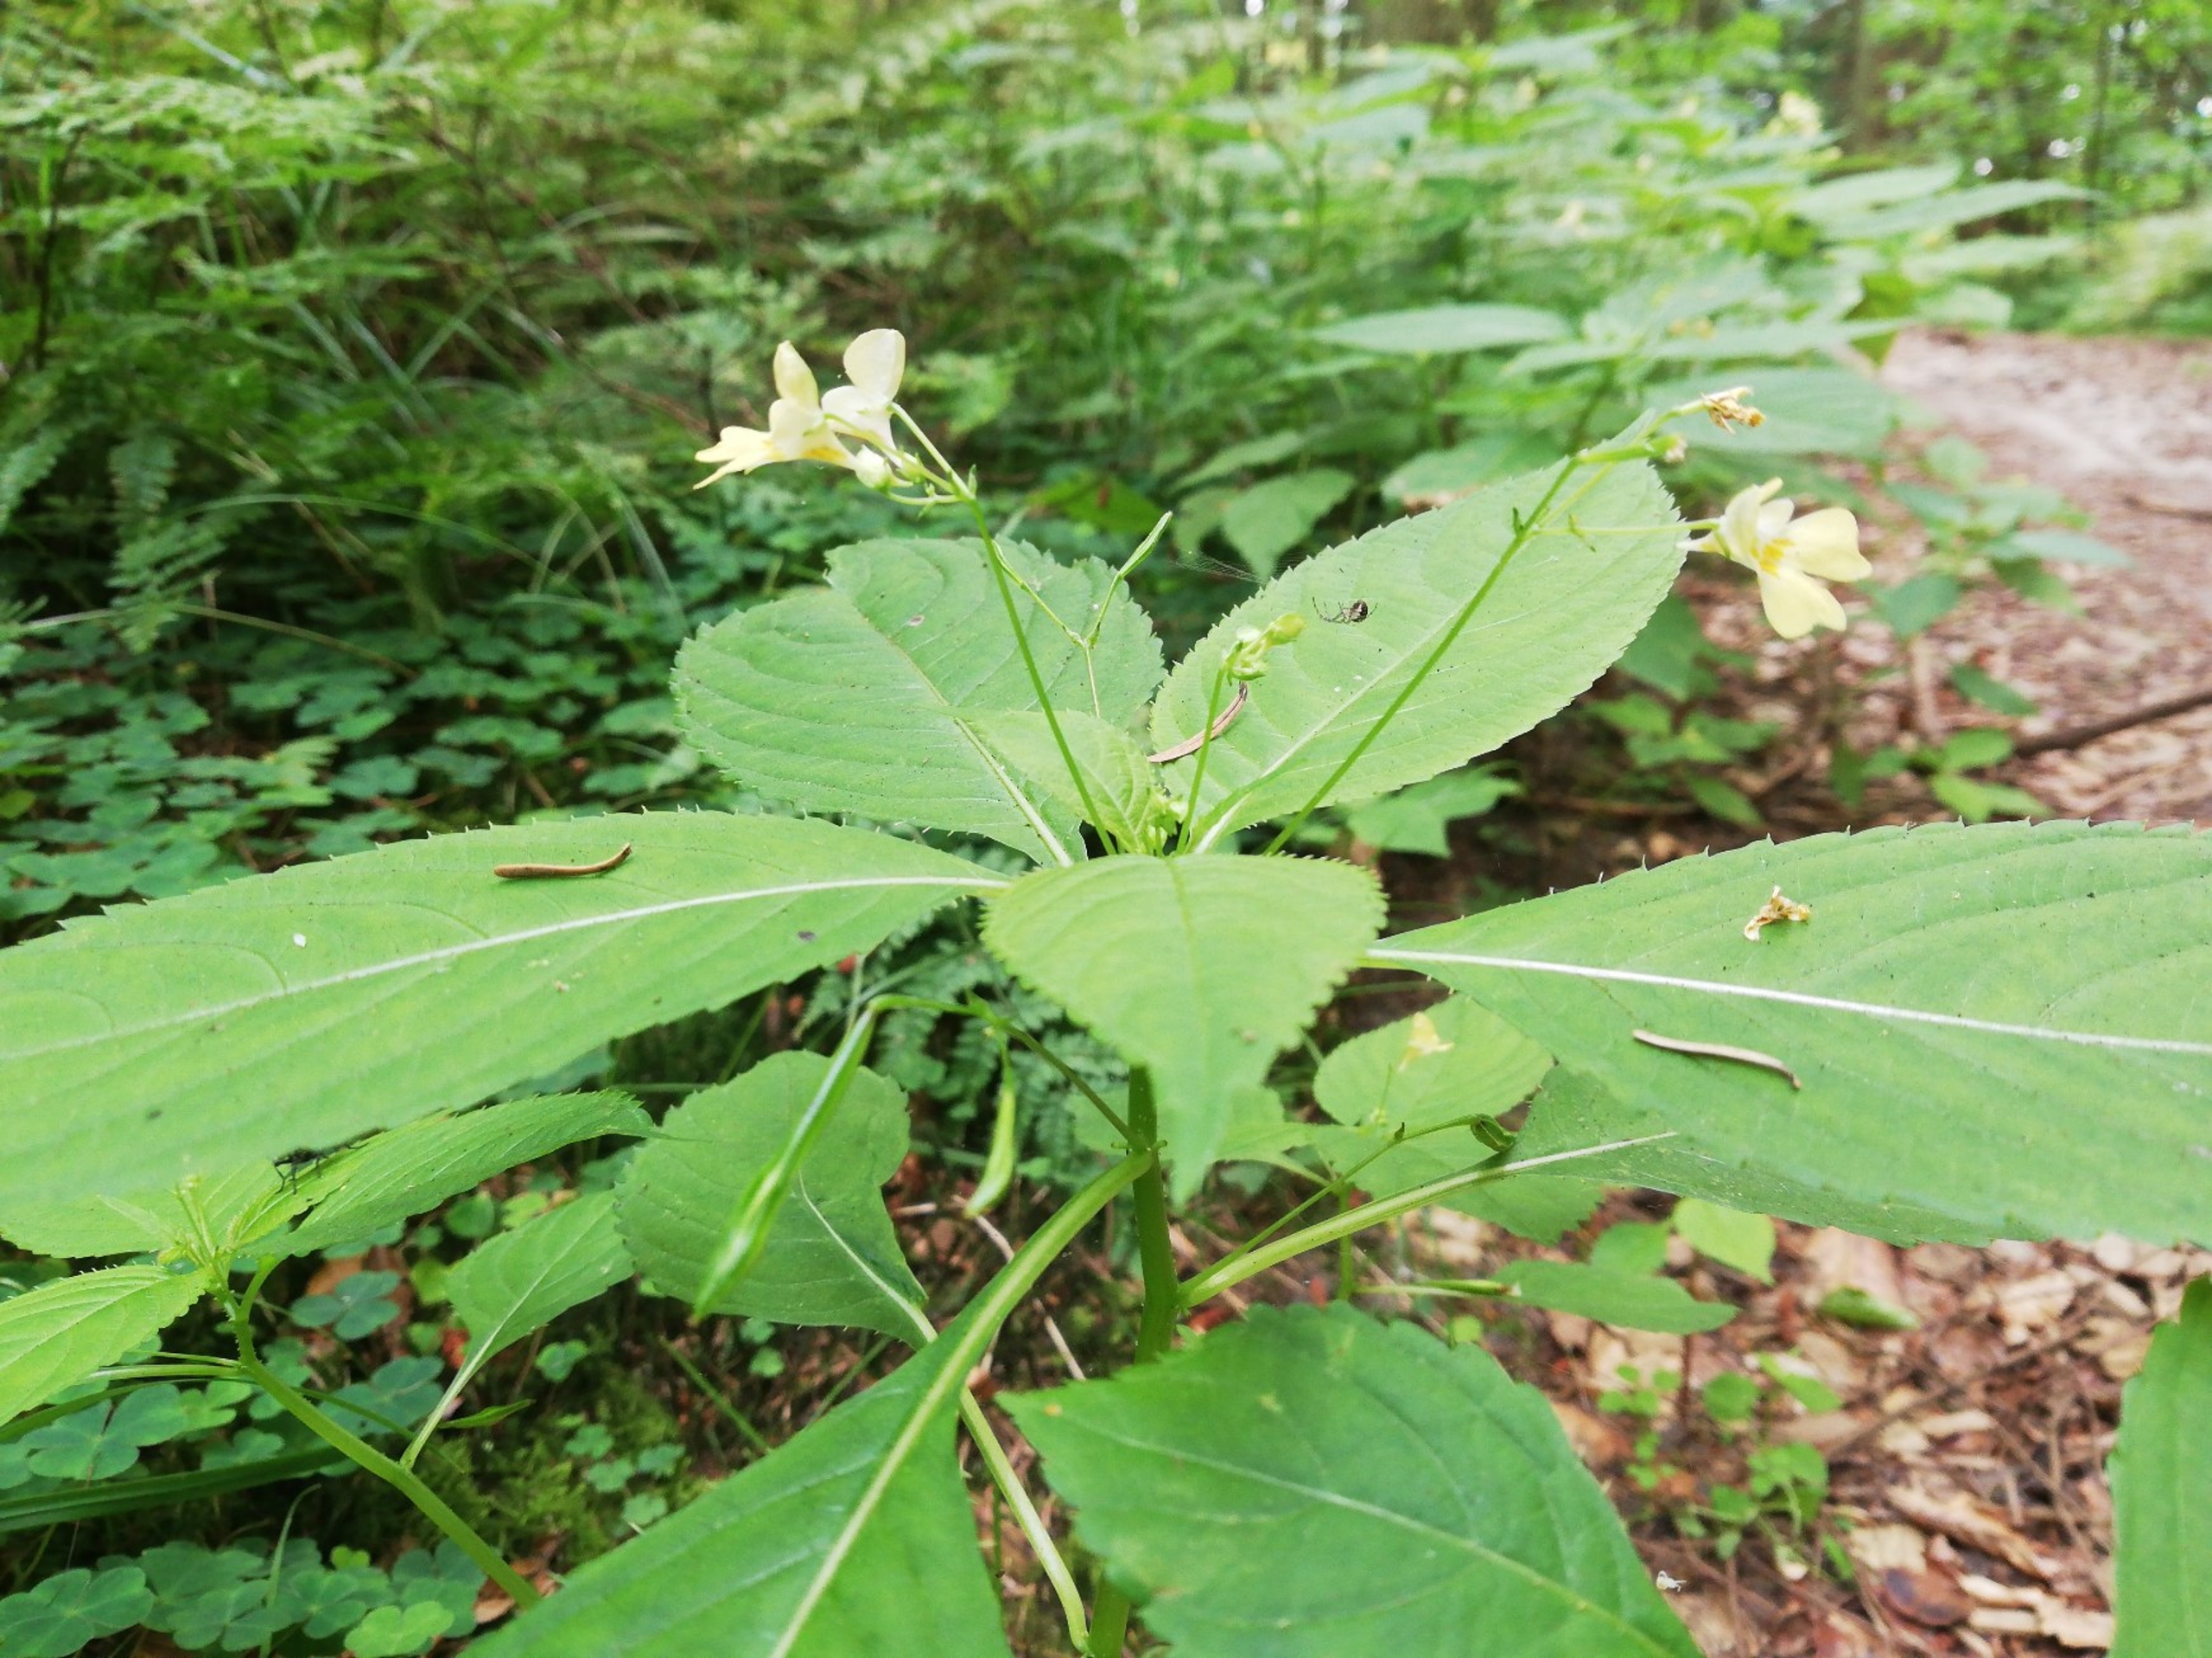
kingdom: Plantae
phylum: Tracheophyta
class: Magnoliopsida
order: Ericales
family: Balsaminaceae
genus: Impatiens
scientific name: Impatiens parviflora
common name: Småblomstret balsamin
